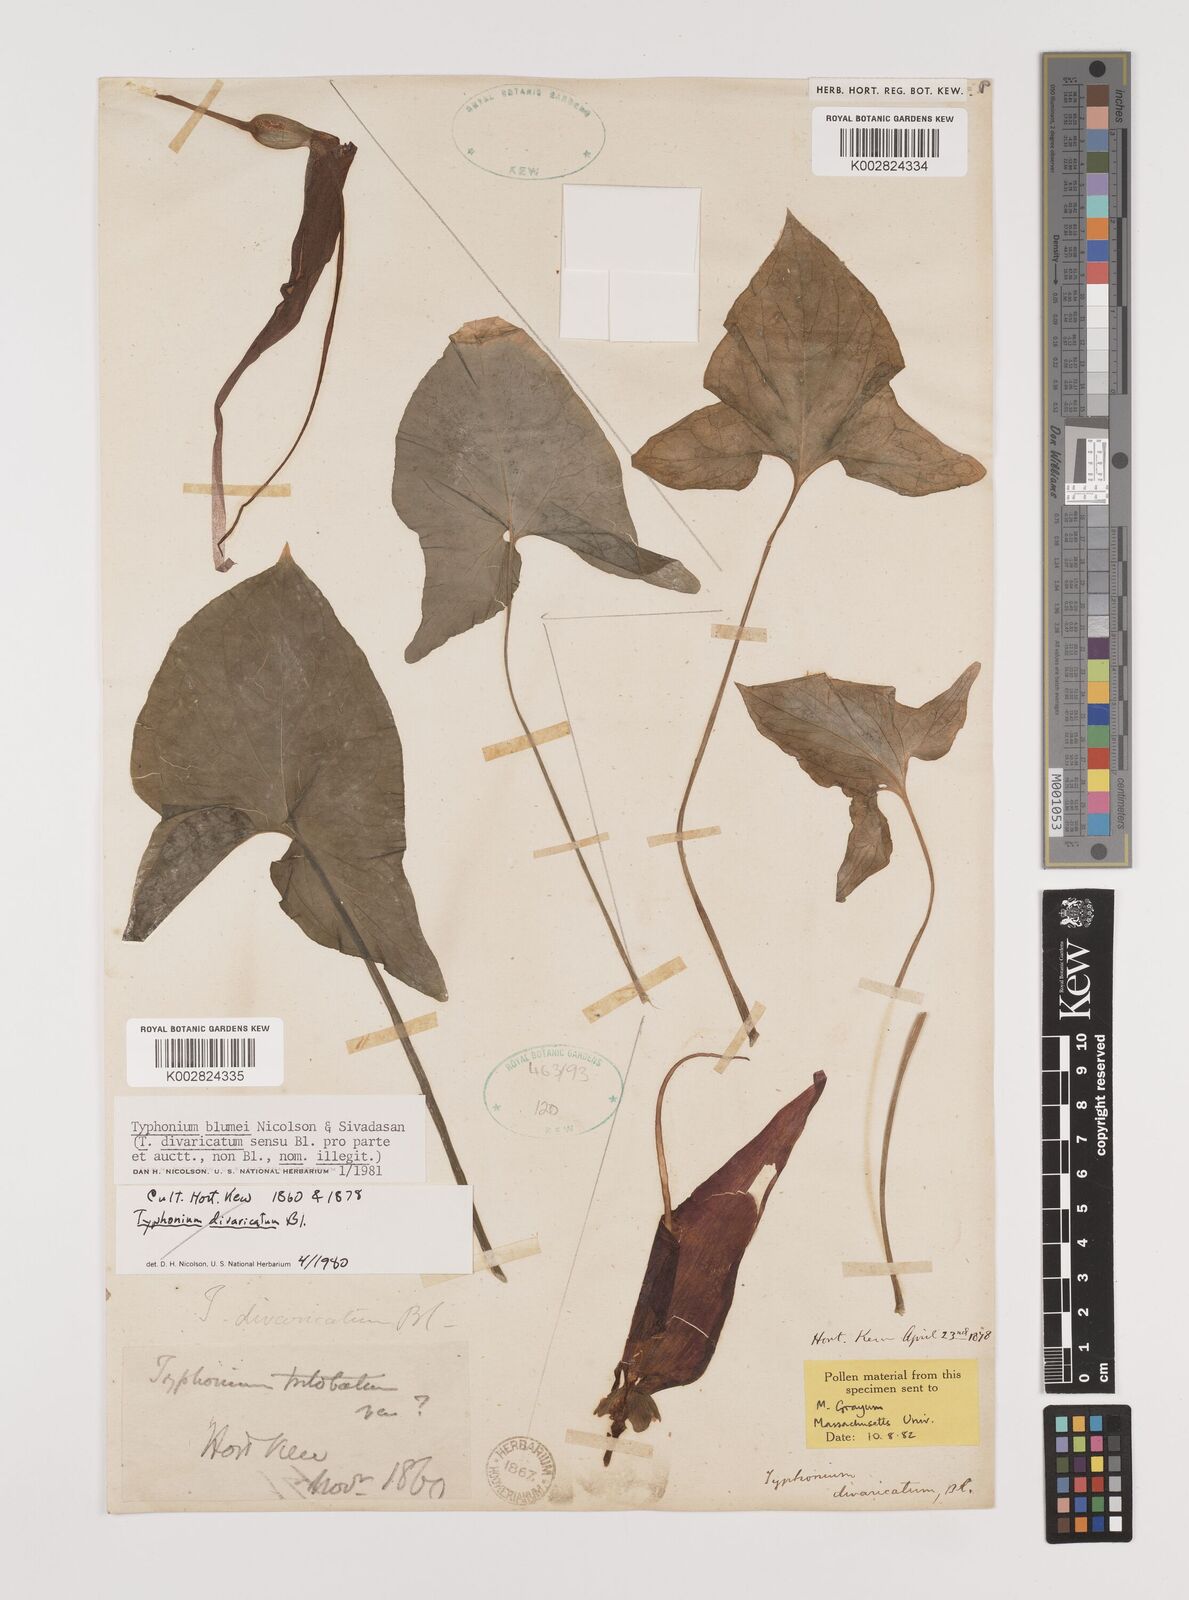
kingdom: Plantae
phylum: Tracheophyta
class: Liliopsida
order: Alismatales
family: Araceae
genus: Typhonium
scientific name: Typhonium blumei
